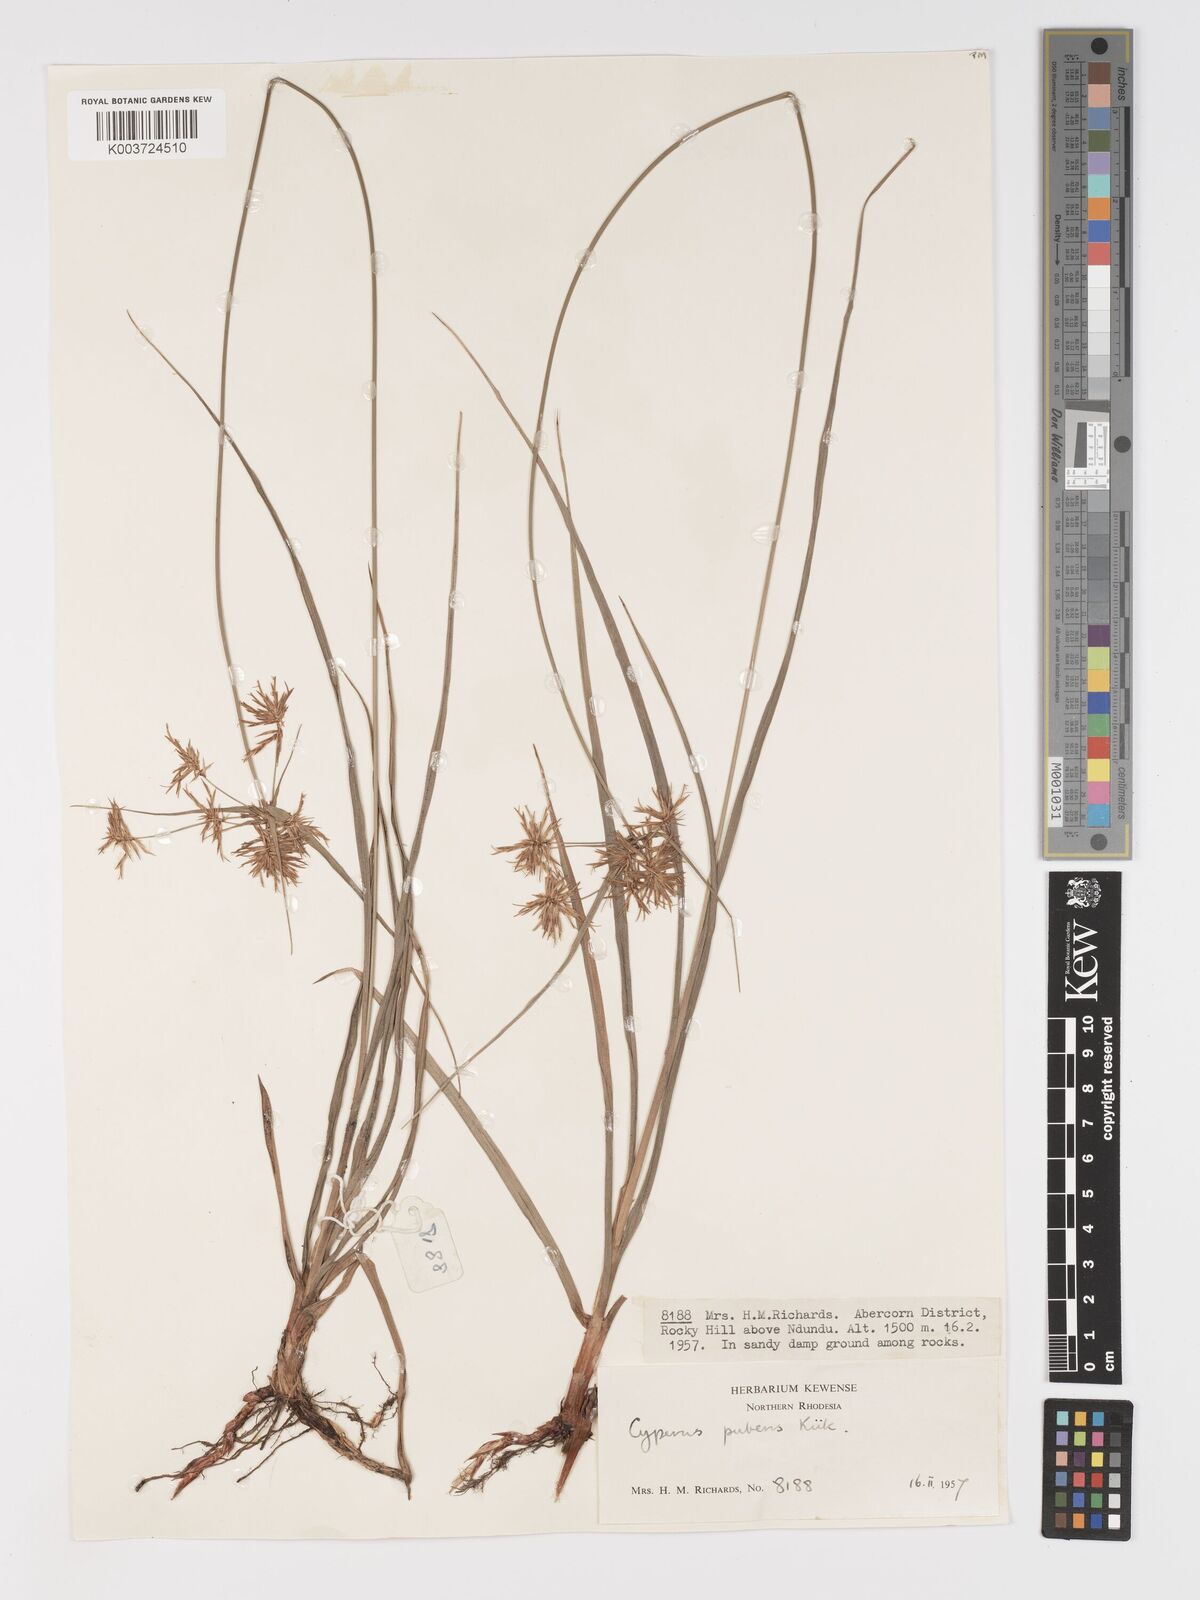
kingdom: Plantae
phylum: Tracheophyta
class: Liliopsida
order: Poales
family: Cyperaceae
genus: Cyperus
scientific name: Cyperus pubens
